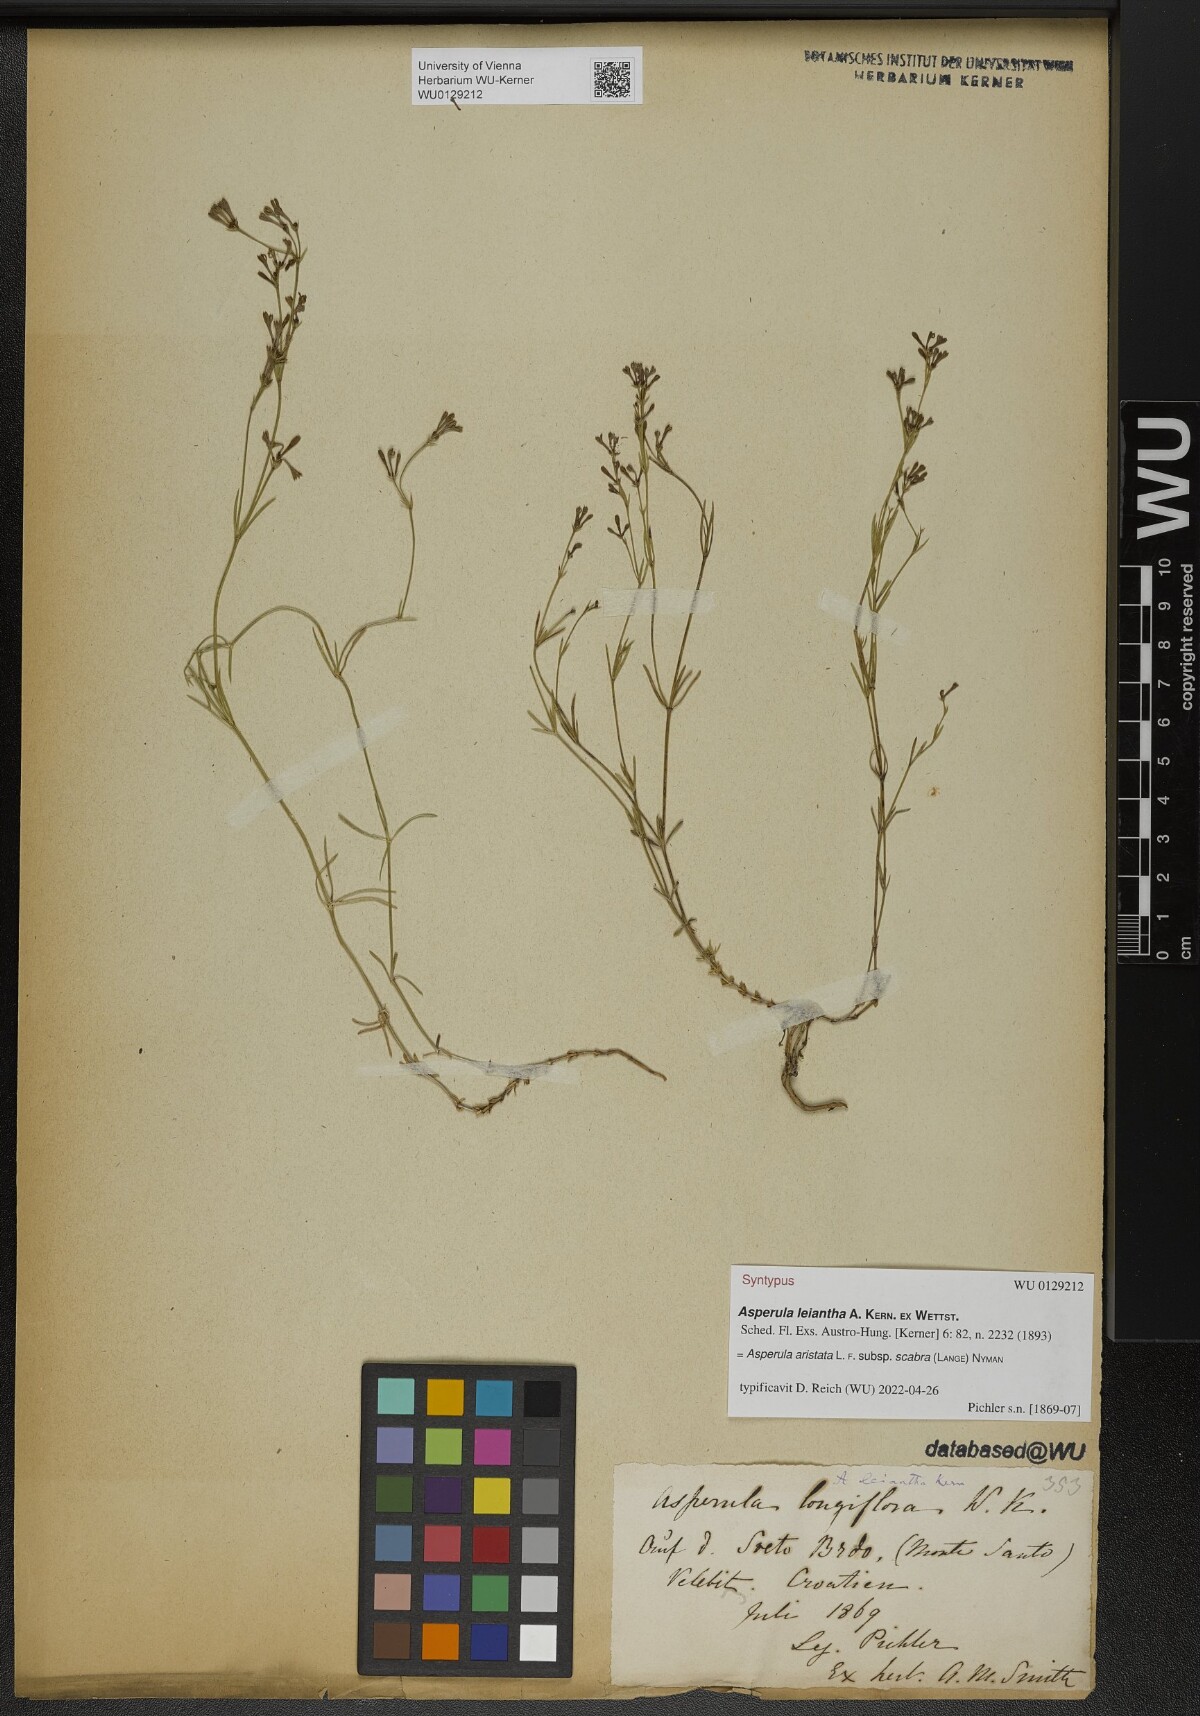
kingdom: Plantae
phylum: Tracheophyta
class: Magnoliopsida
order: Gentianales
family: Rubiaceae
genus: Asperula
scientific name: Asperula
